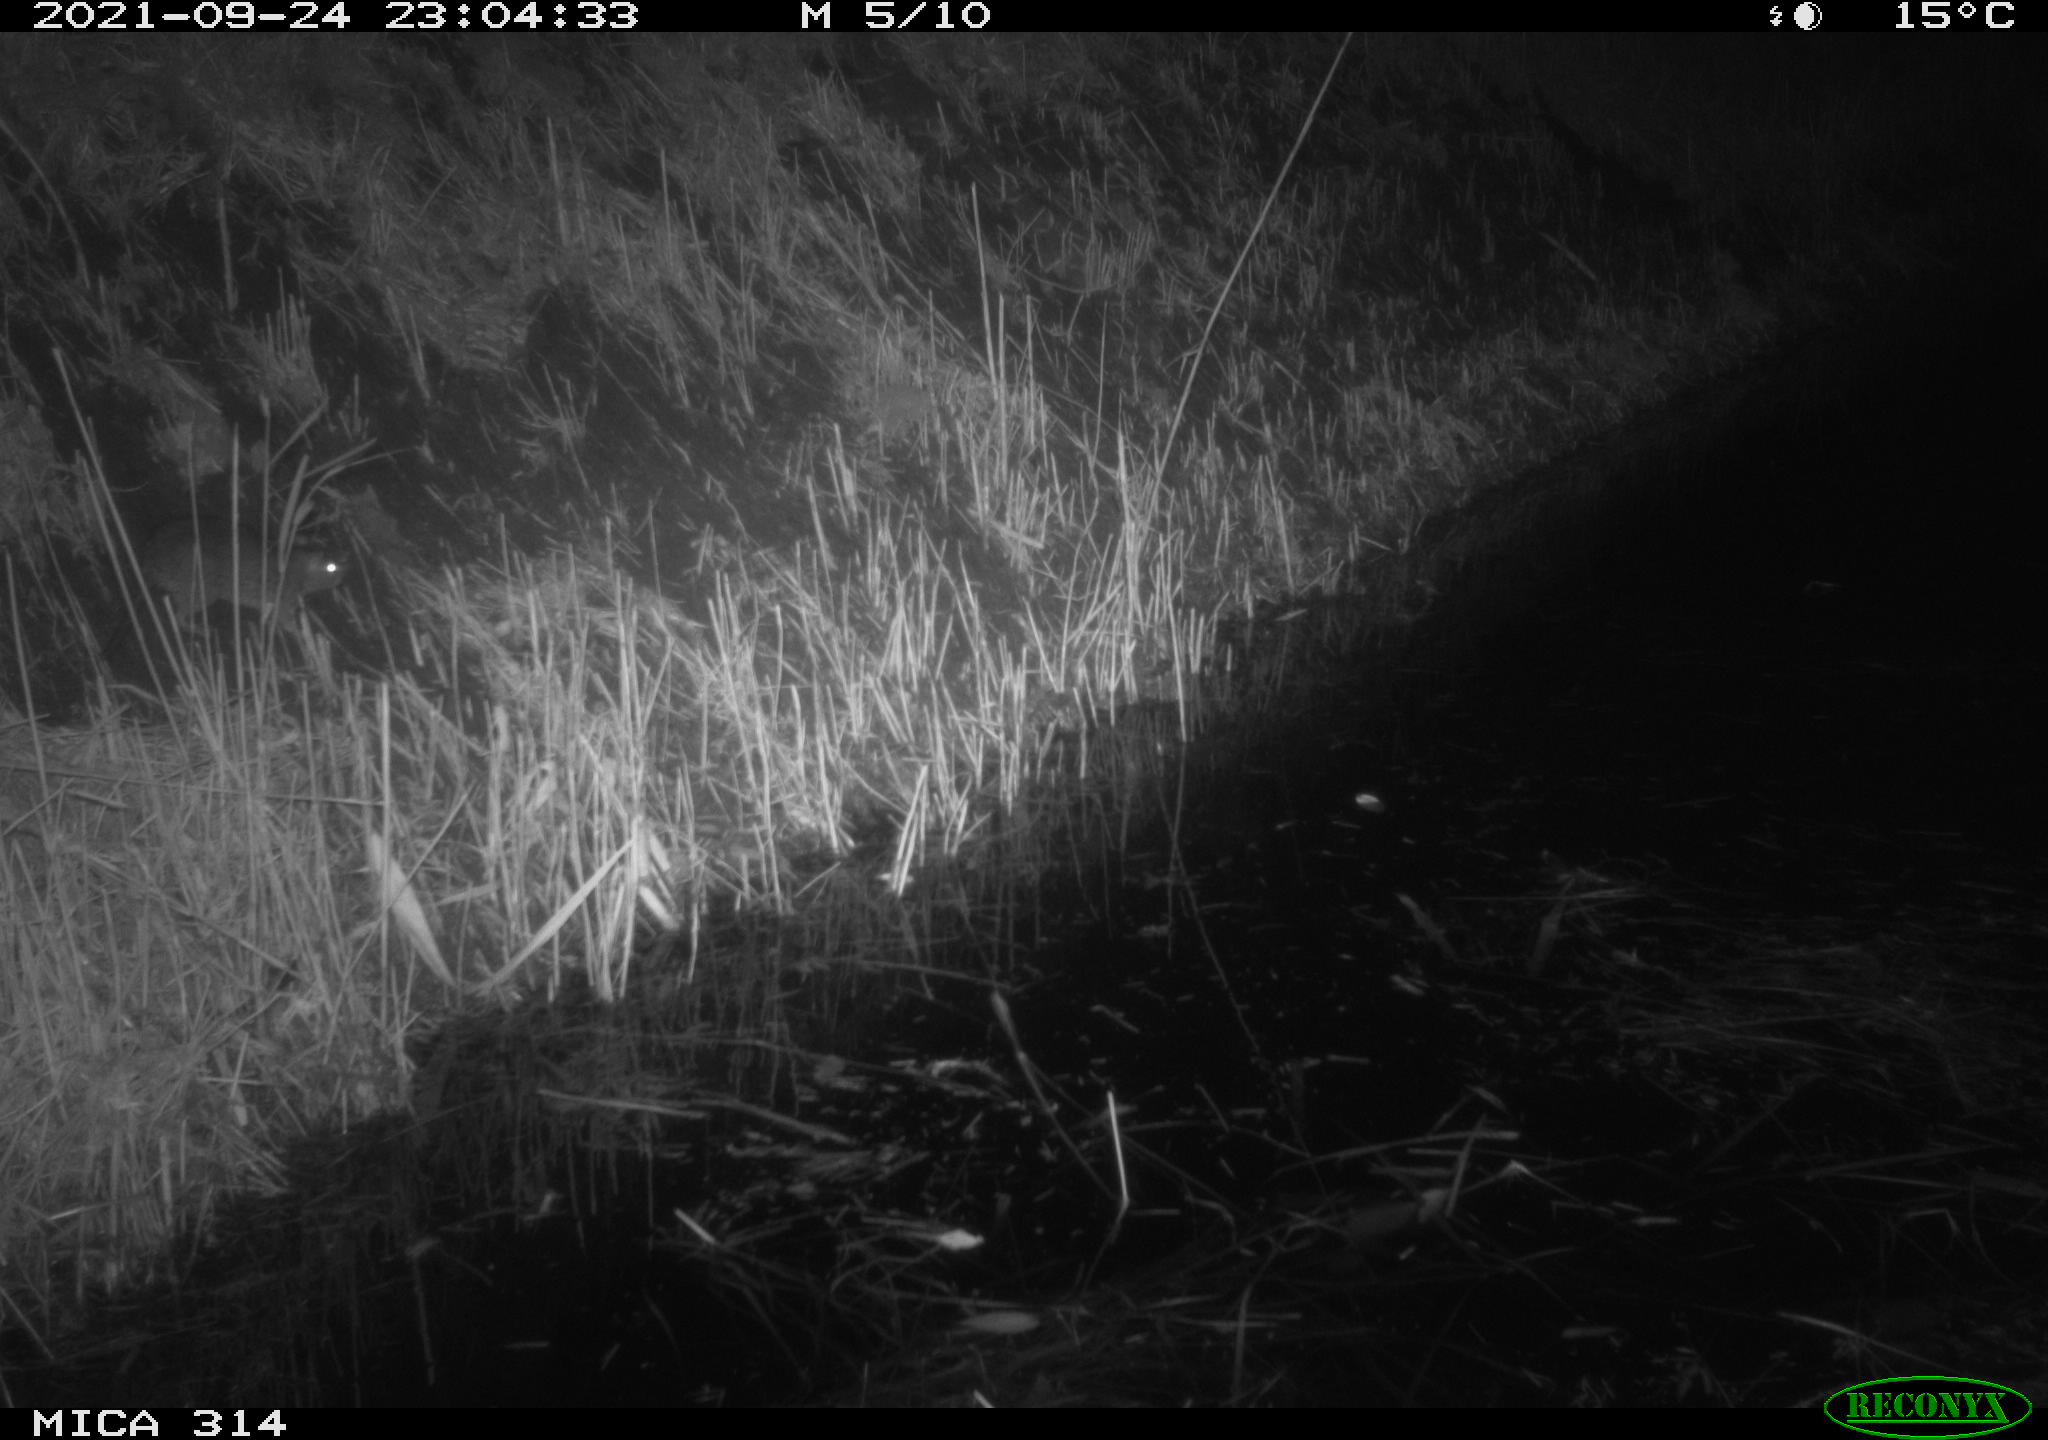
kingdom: Animalia
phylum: Chordata
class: Mammalia
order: Rodentia
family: Muridae
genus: Rattus
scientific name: Rattus norvegicus
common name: Brown rat
